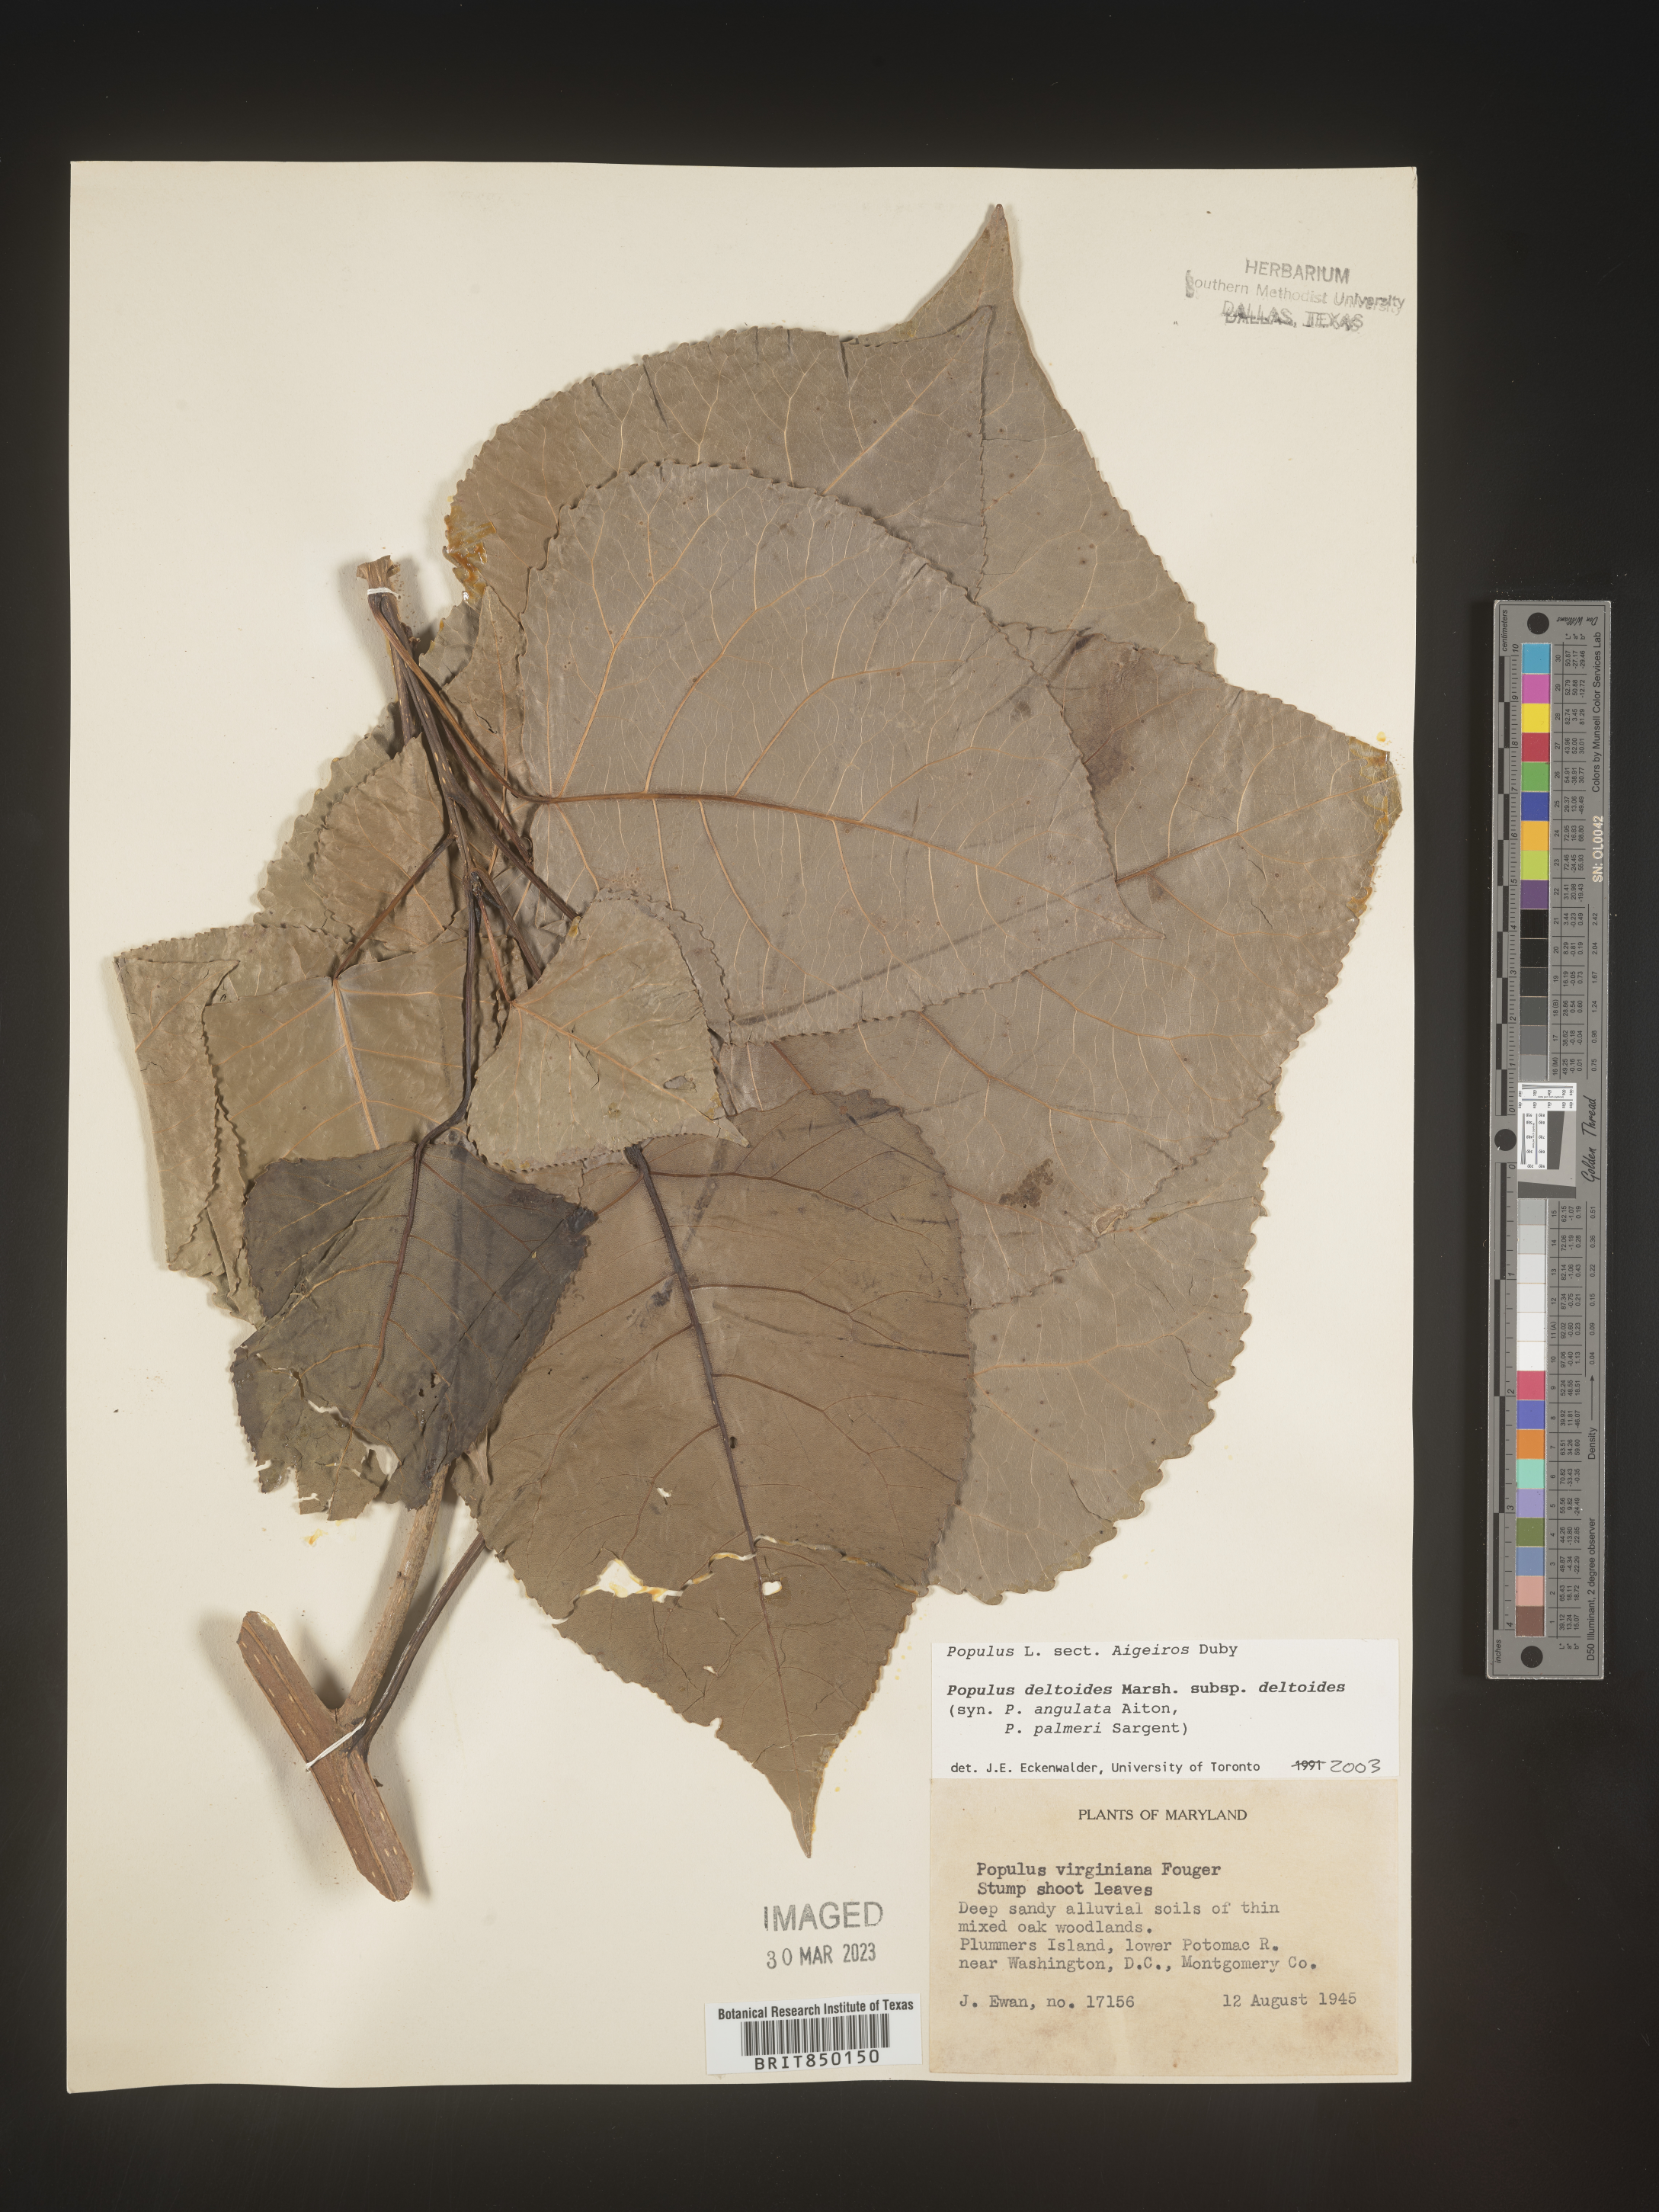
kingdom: Plantae
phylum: Tracheophyta
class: Magnoliopsida
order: Malpighiales
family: Salicaceae
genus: Populus
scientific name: Populus deltoides
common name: Eastern cottonwood
